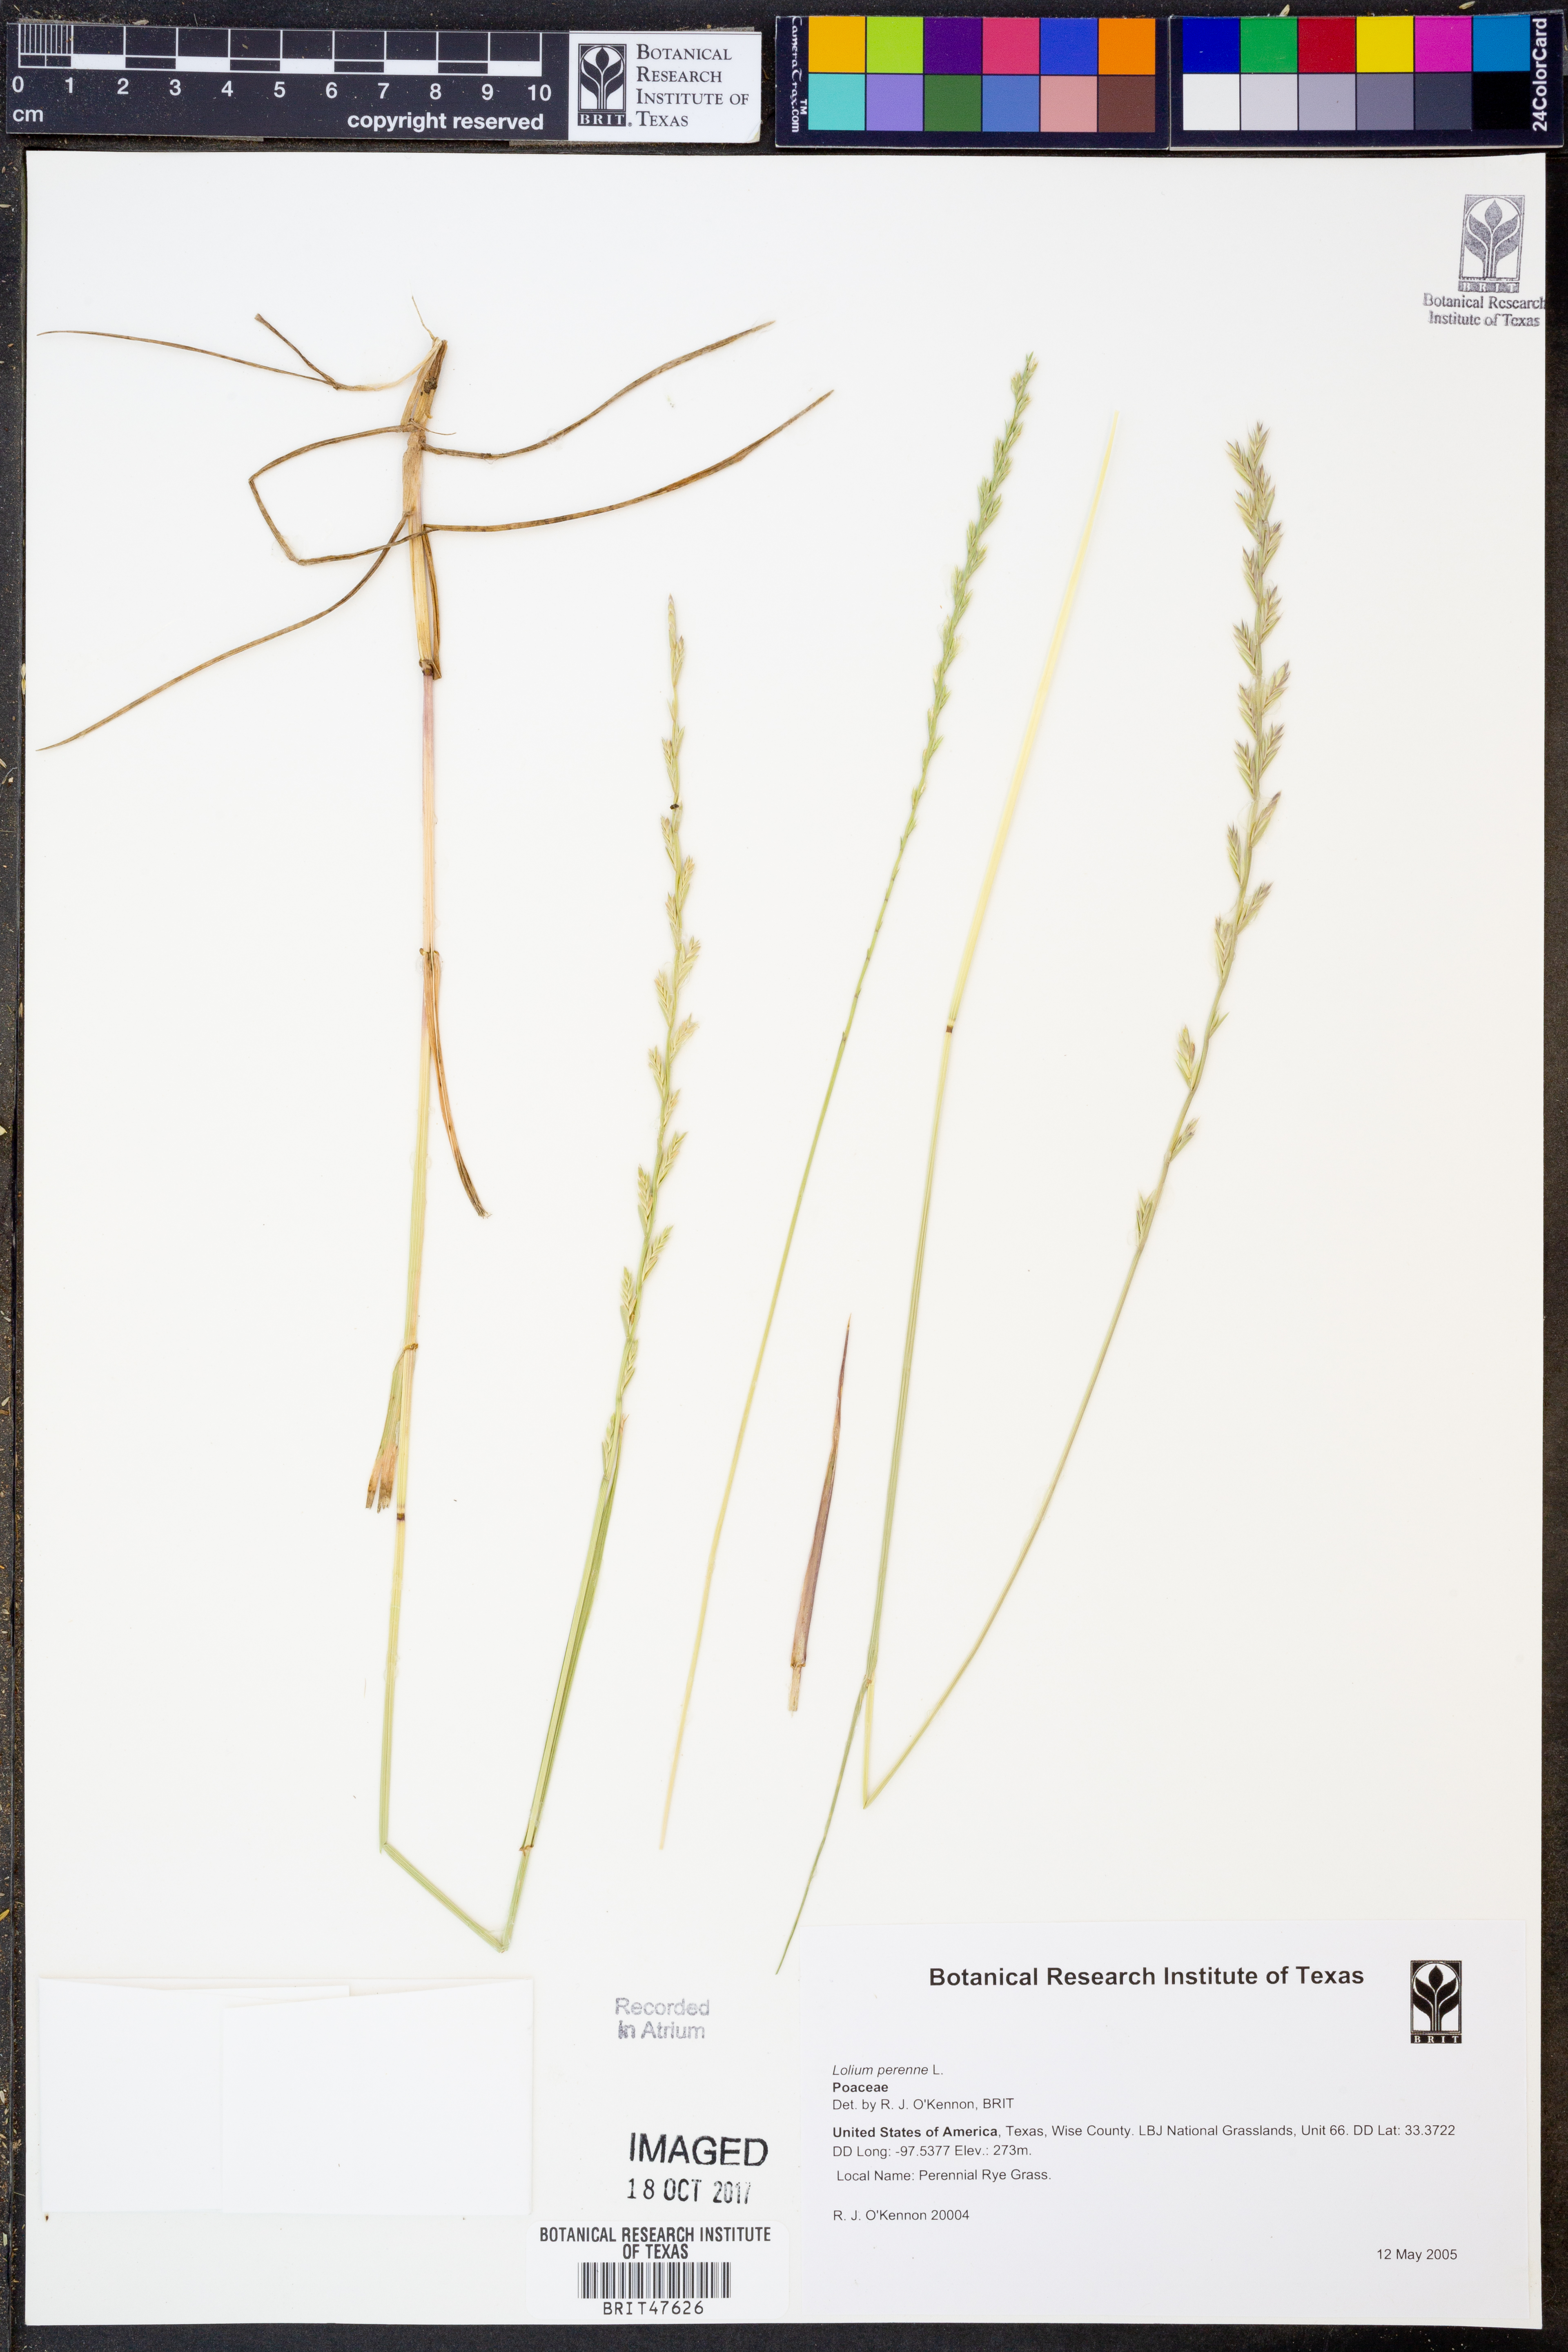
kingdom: Plantae
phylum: Tracheophyta
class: Liliopsida
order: Poales
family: Poaceae
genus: Lolium
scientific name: Lolium perenne
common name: Perennial ryegrass
